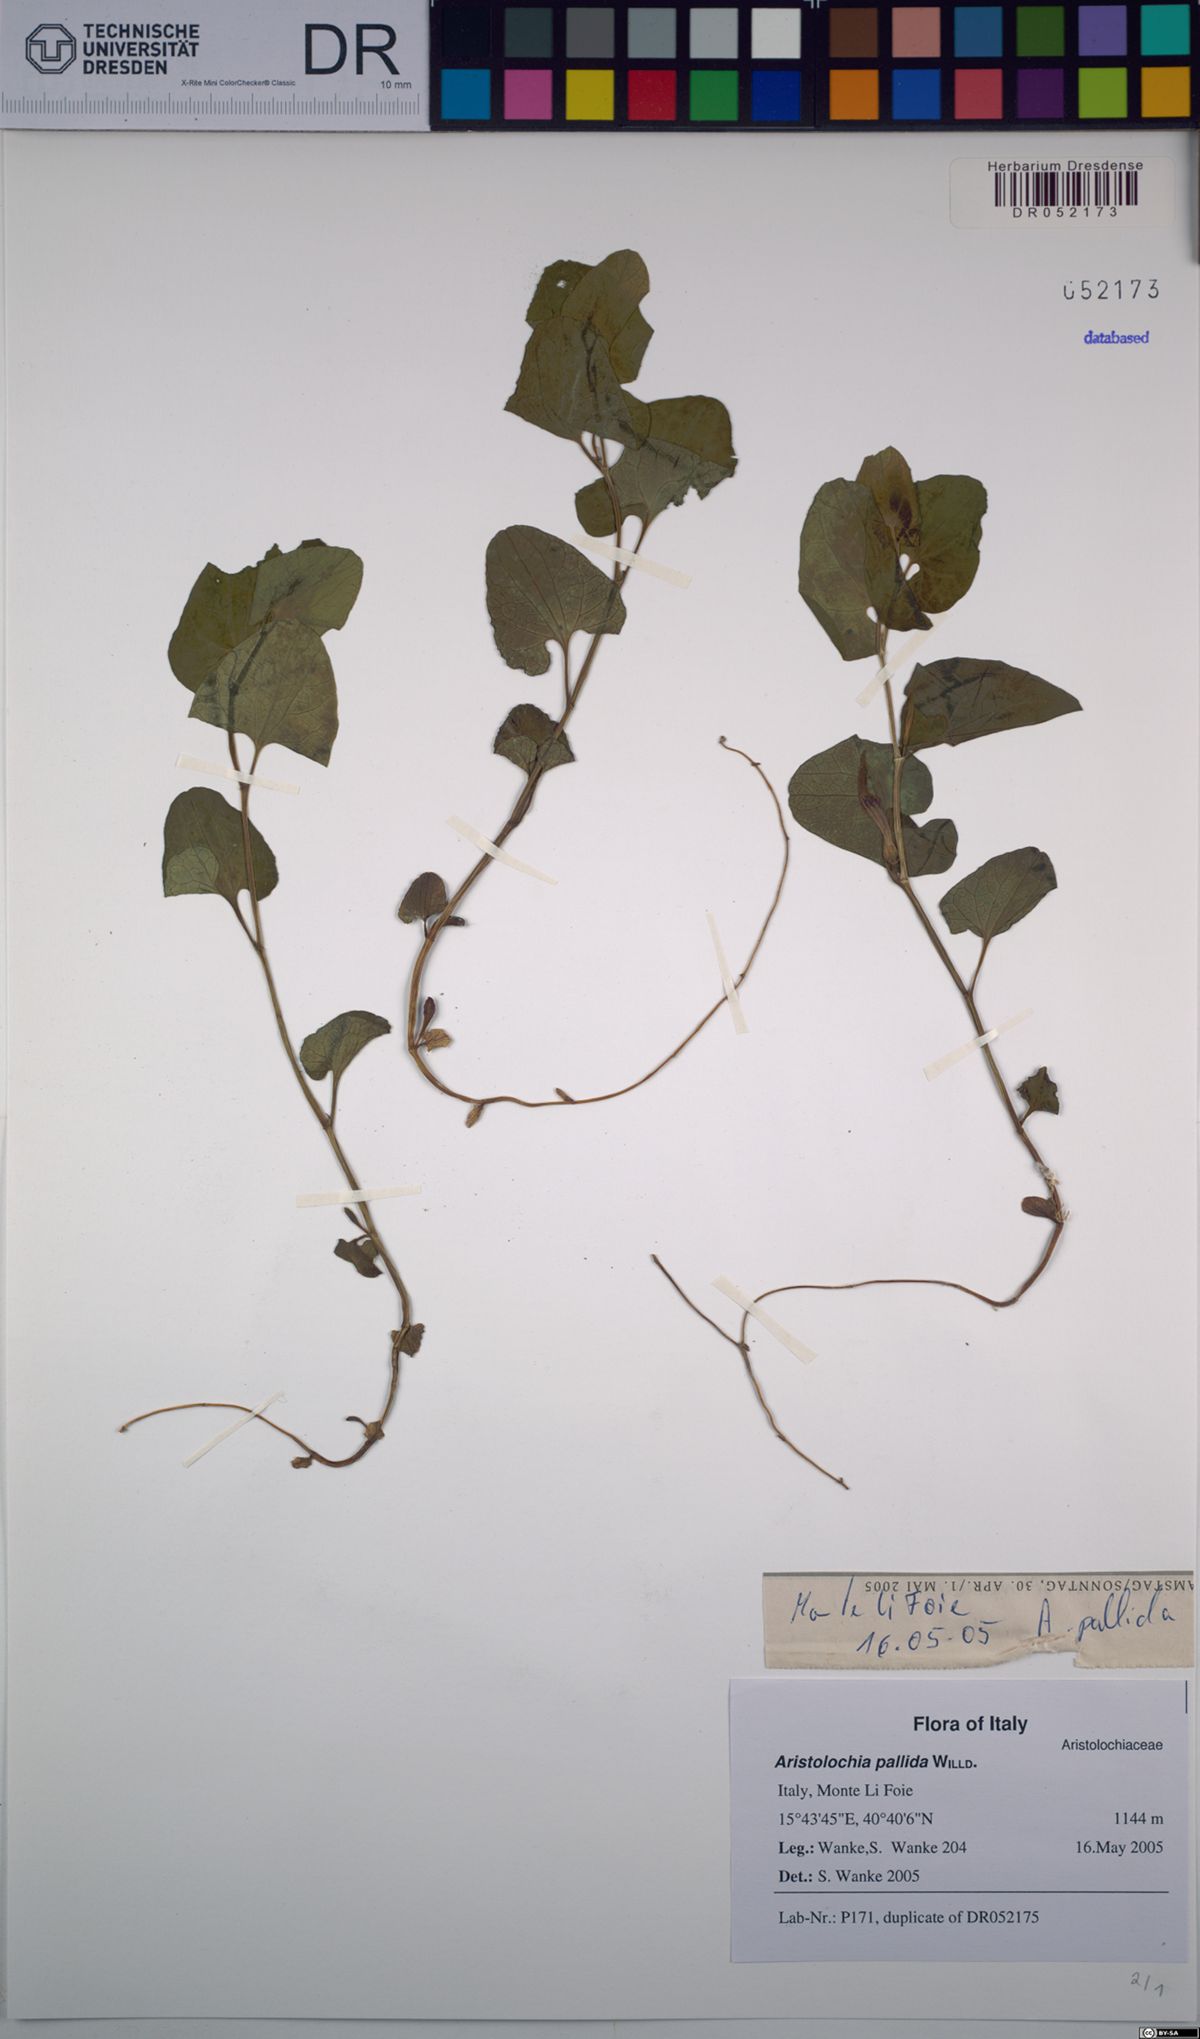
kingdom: Plantae
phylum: Tracheophyta
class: Magnoliopsida
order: Piperales
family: Aristolochiaceae
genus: Aristolochia
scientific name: Aristolochia pallida
